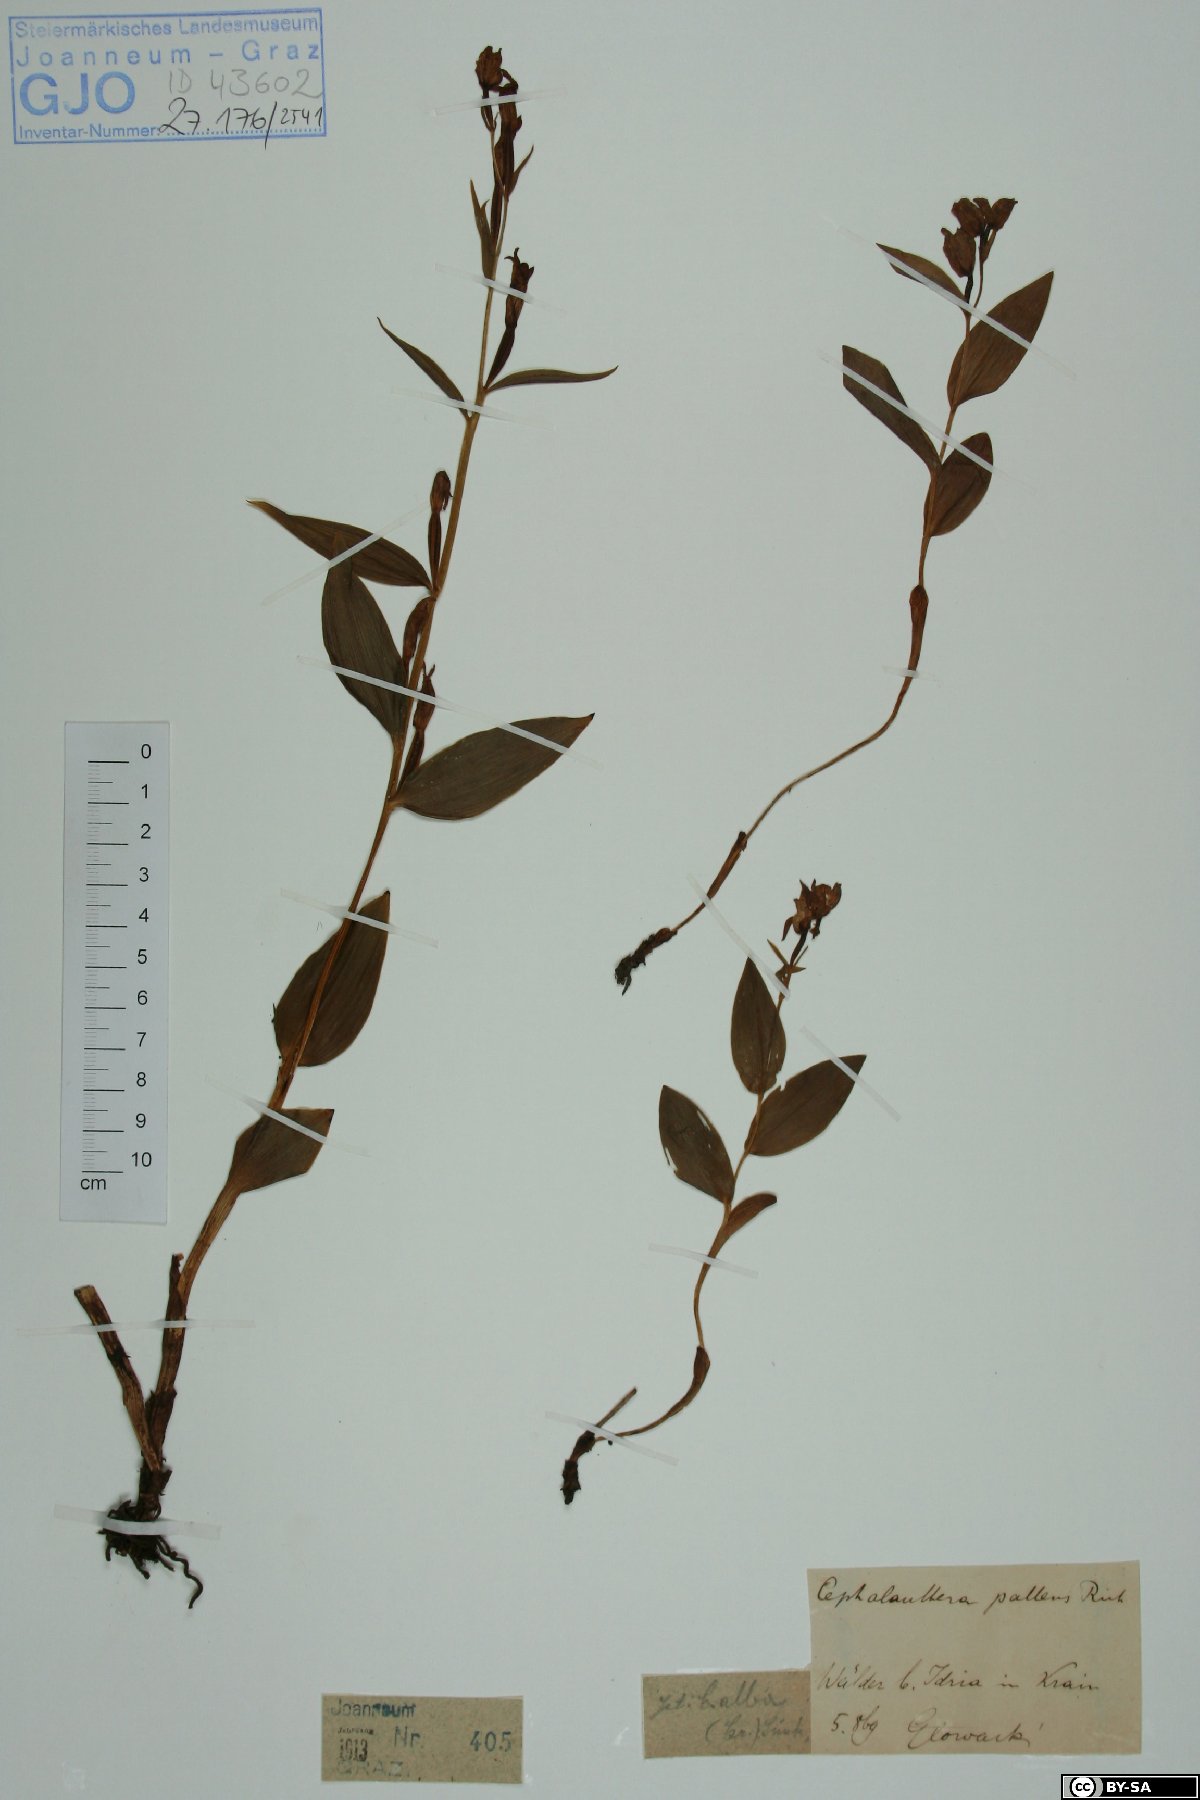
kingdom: Plantae
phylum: Tracheophyta
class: Liliopsida
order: Asparagales
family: Orchidaceae
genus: Cephalanthera
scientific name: Cephalanthera longifolia
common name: Narrow-leaved helleborine
